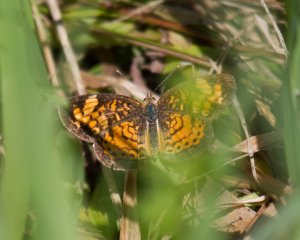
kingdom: Animalia
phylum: Arthropoda
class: Insecta
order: Lepidoptera
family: Nymphalidae
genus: Phyciodes
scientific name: Phyciodes tharos
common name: Northern Crescent
